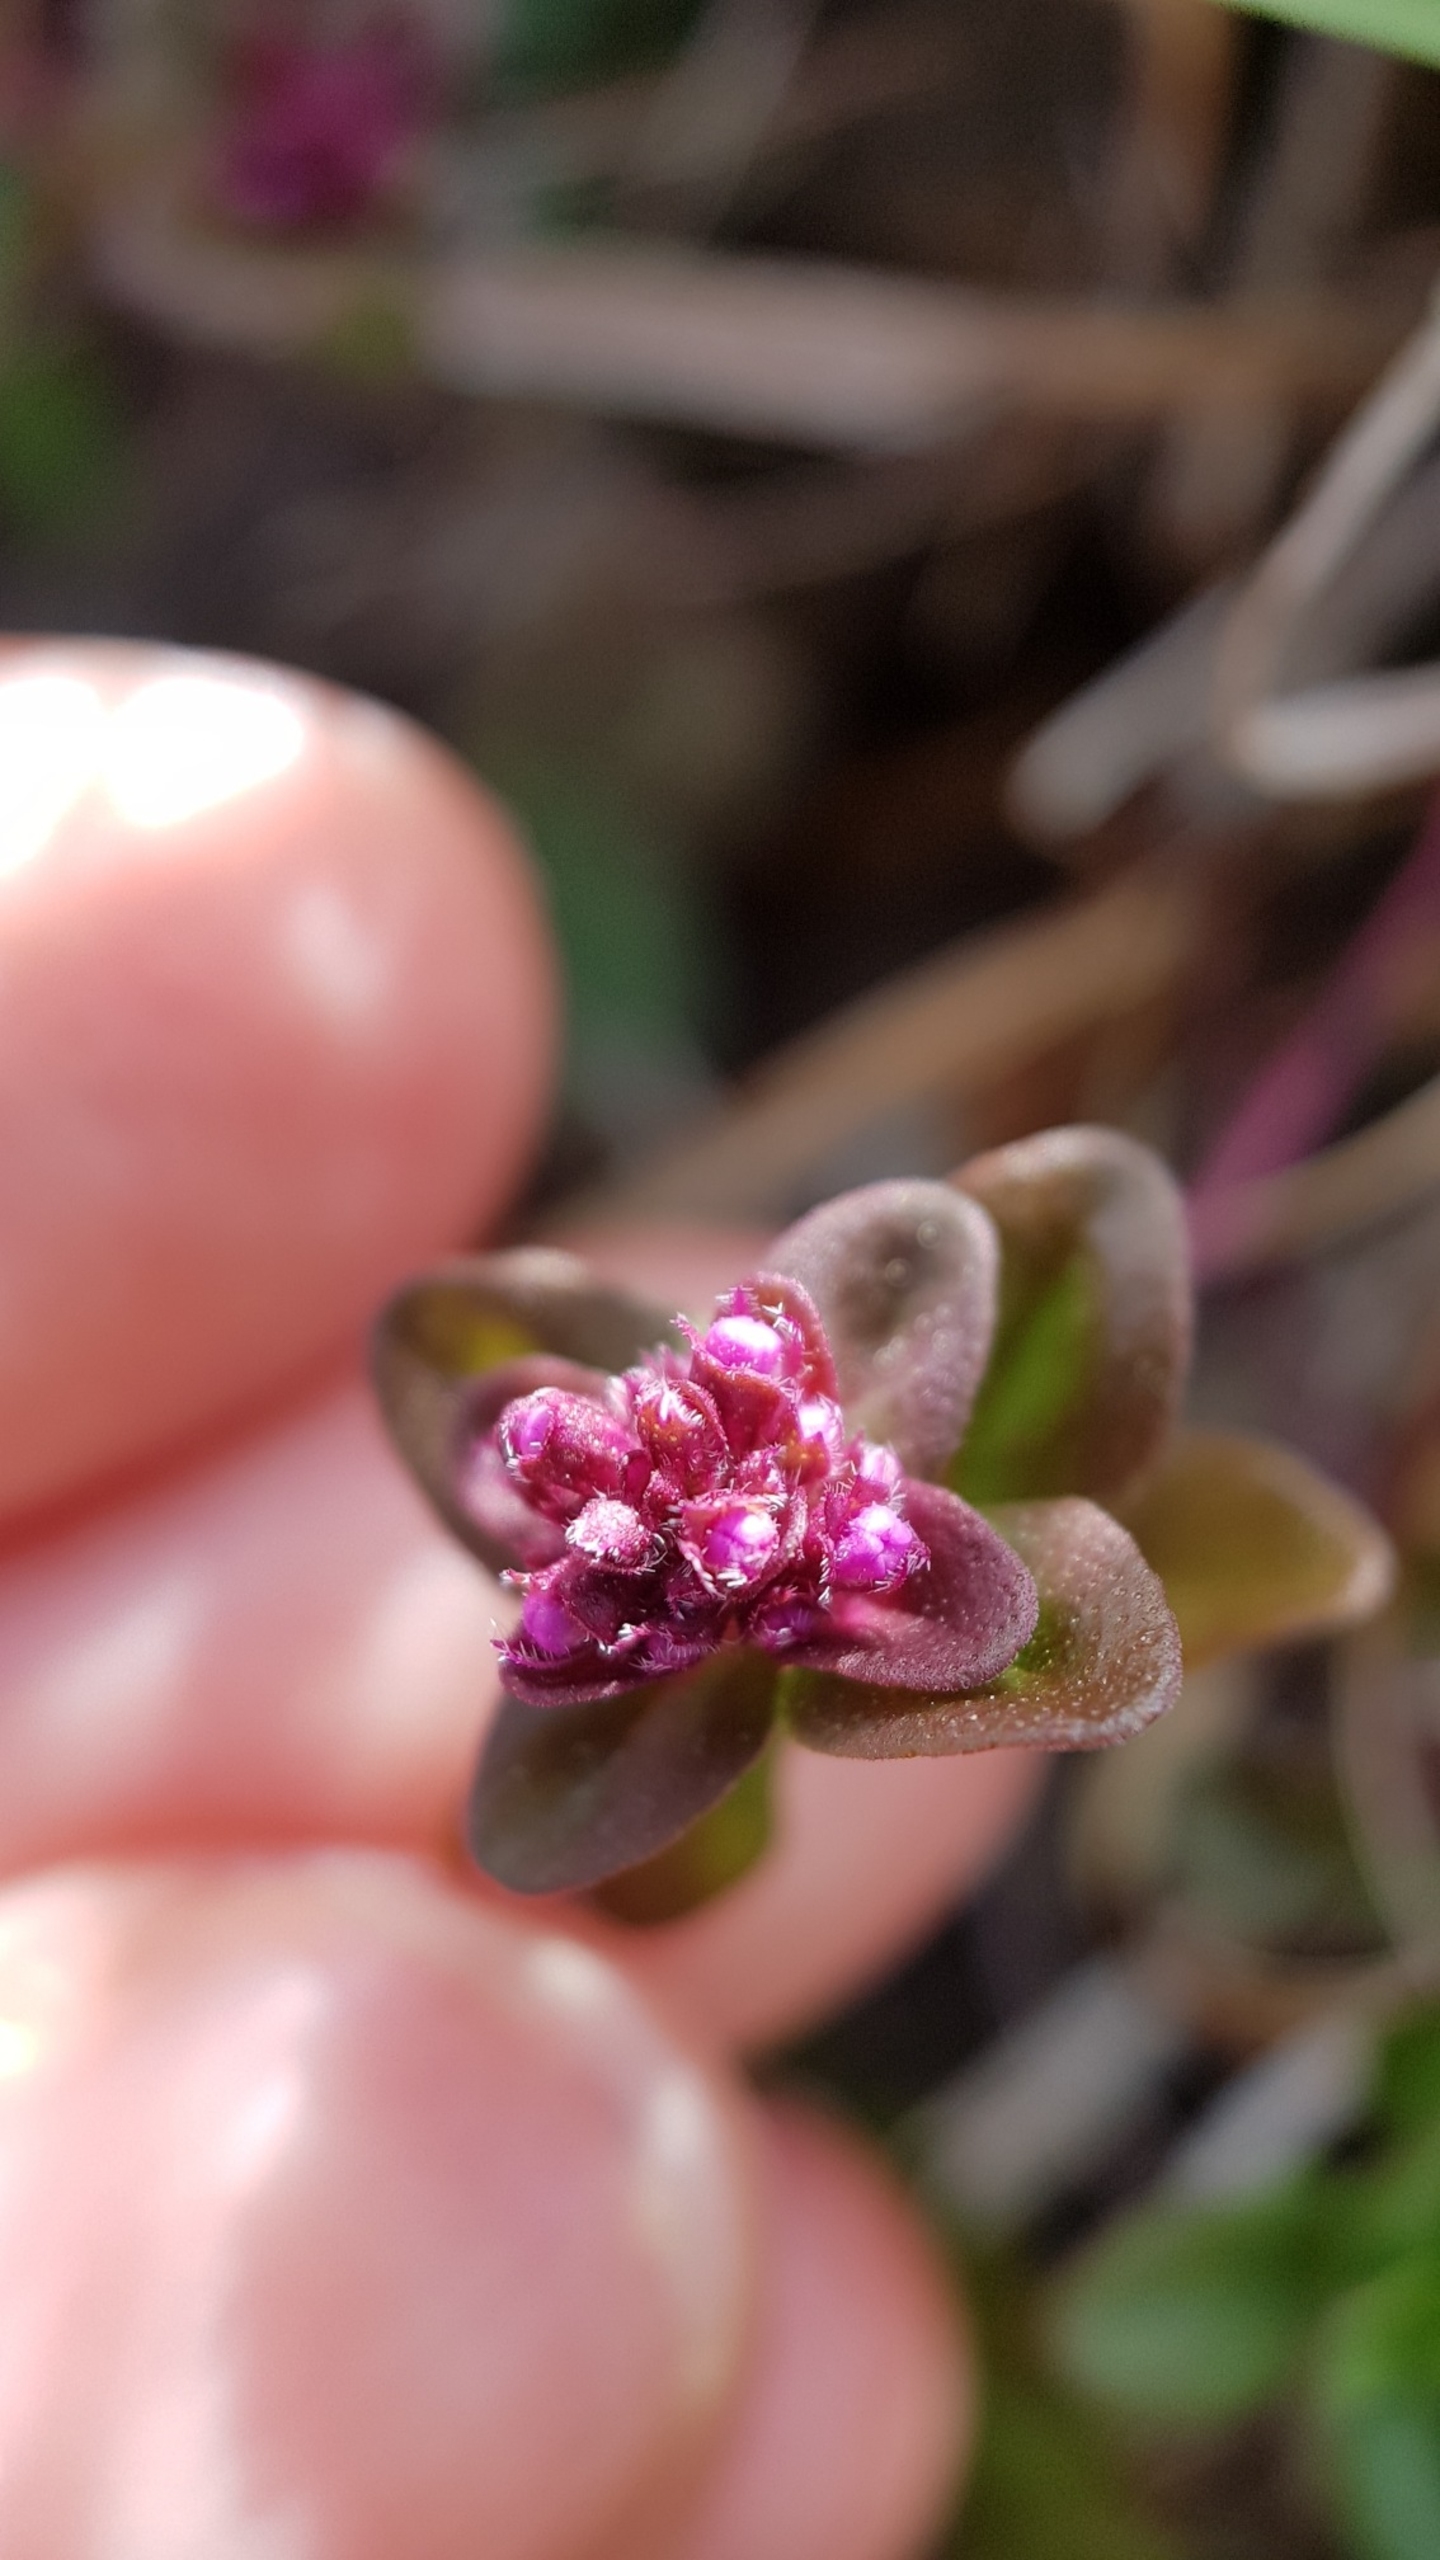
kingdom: Plantae
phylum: Tracheophyta
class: Magnoliopsida
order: Lamiales
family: Lamiaceae
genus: Thymus
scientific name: Thymus pulegioides
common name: Bredbladet timian
